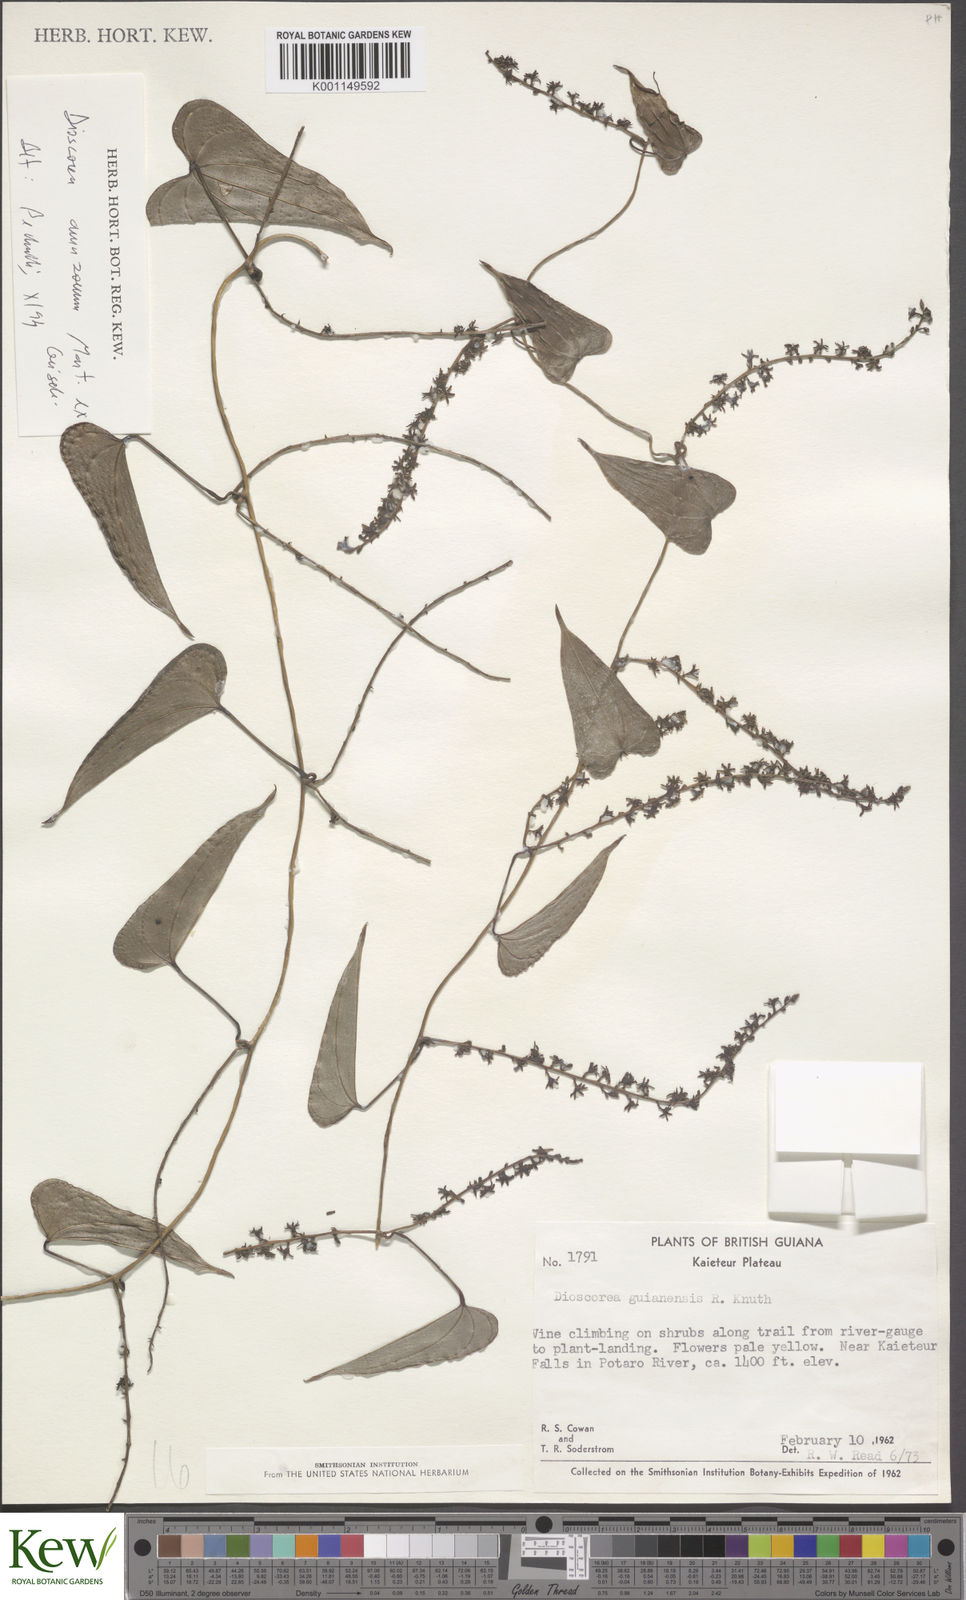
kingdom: Plantae
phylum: Tracheophyta
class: Liliopsida
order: Dioscoreales
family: Dioscoreaceae
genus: Dioscorea
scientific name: Dioscorea trichanthera
